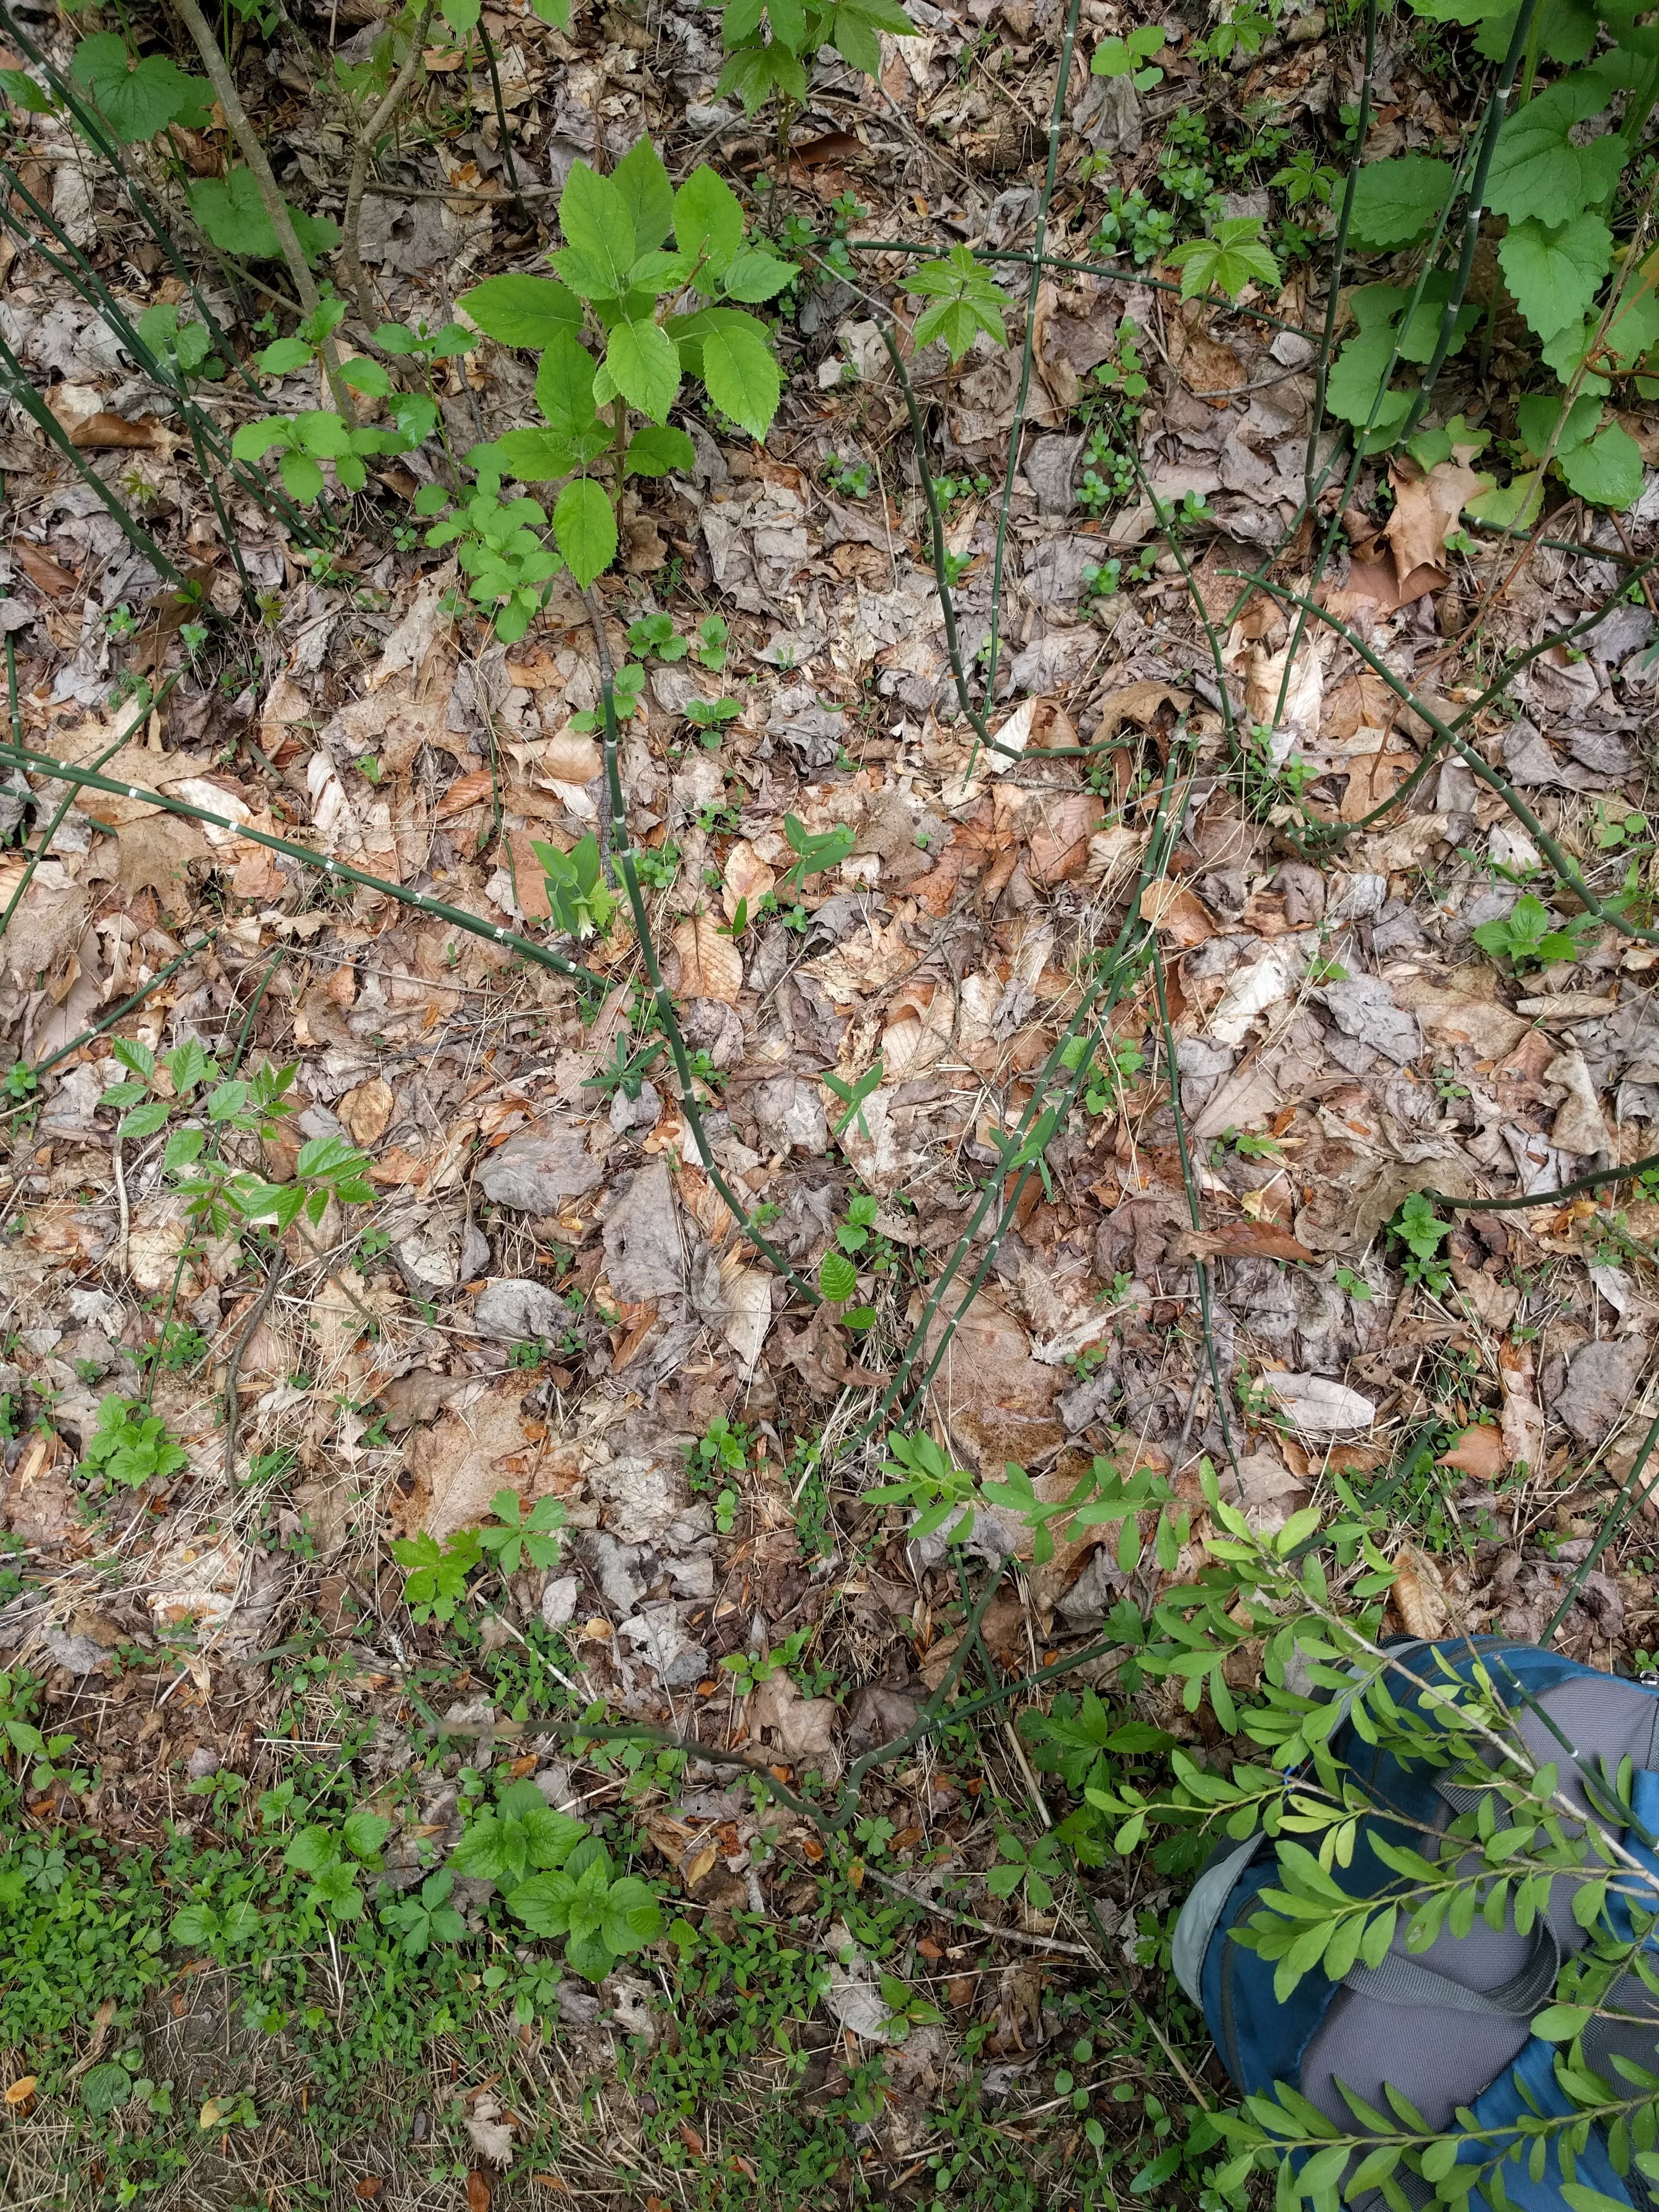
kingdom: Plantae
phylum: Tracheophyta
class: Polypodiopsida
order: Equisetales
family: Equisetaceae
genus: Equisetum
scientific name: Equisetum hyemale
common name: Rough horsetail
